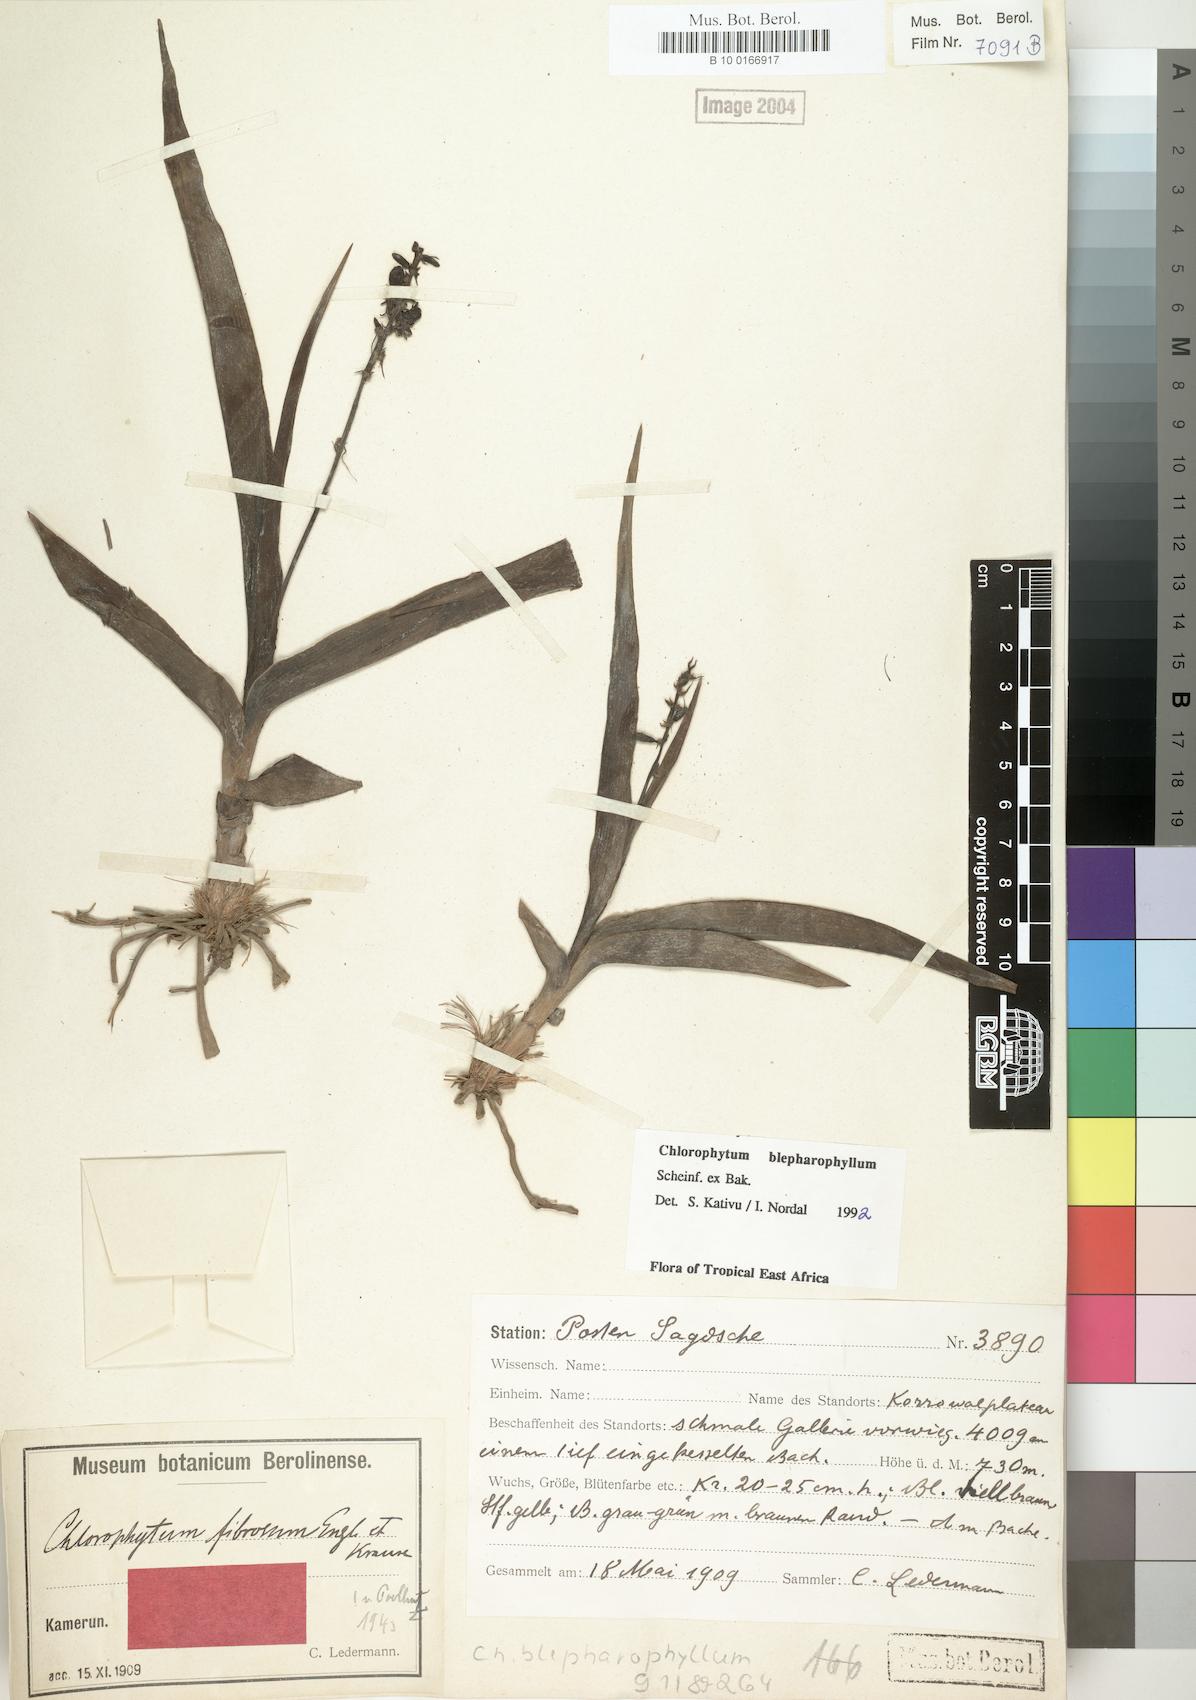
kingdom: Plantae
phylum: Tracheophyta
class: Liliopsida
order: Asparagales
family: Asparagaceae
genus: Chlorophytum
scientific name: Chlorophytum blepharophyllum
